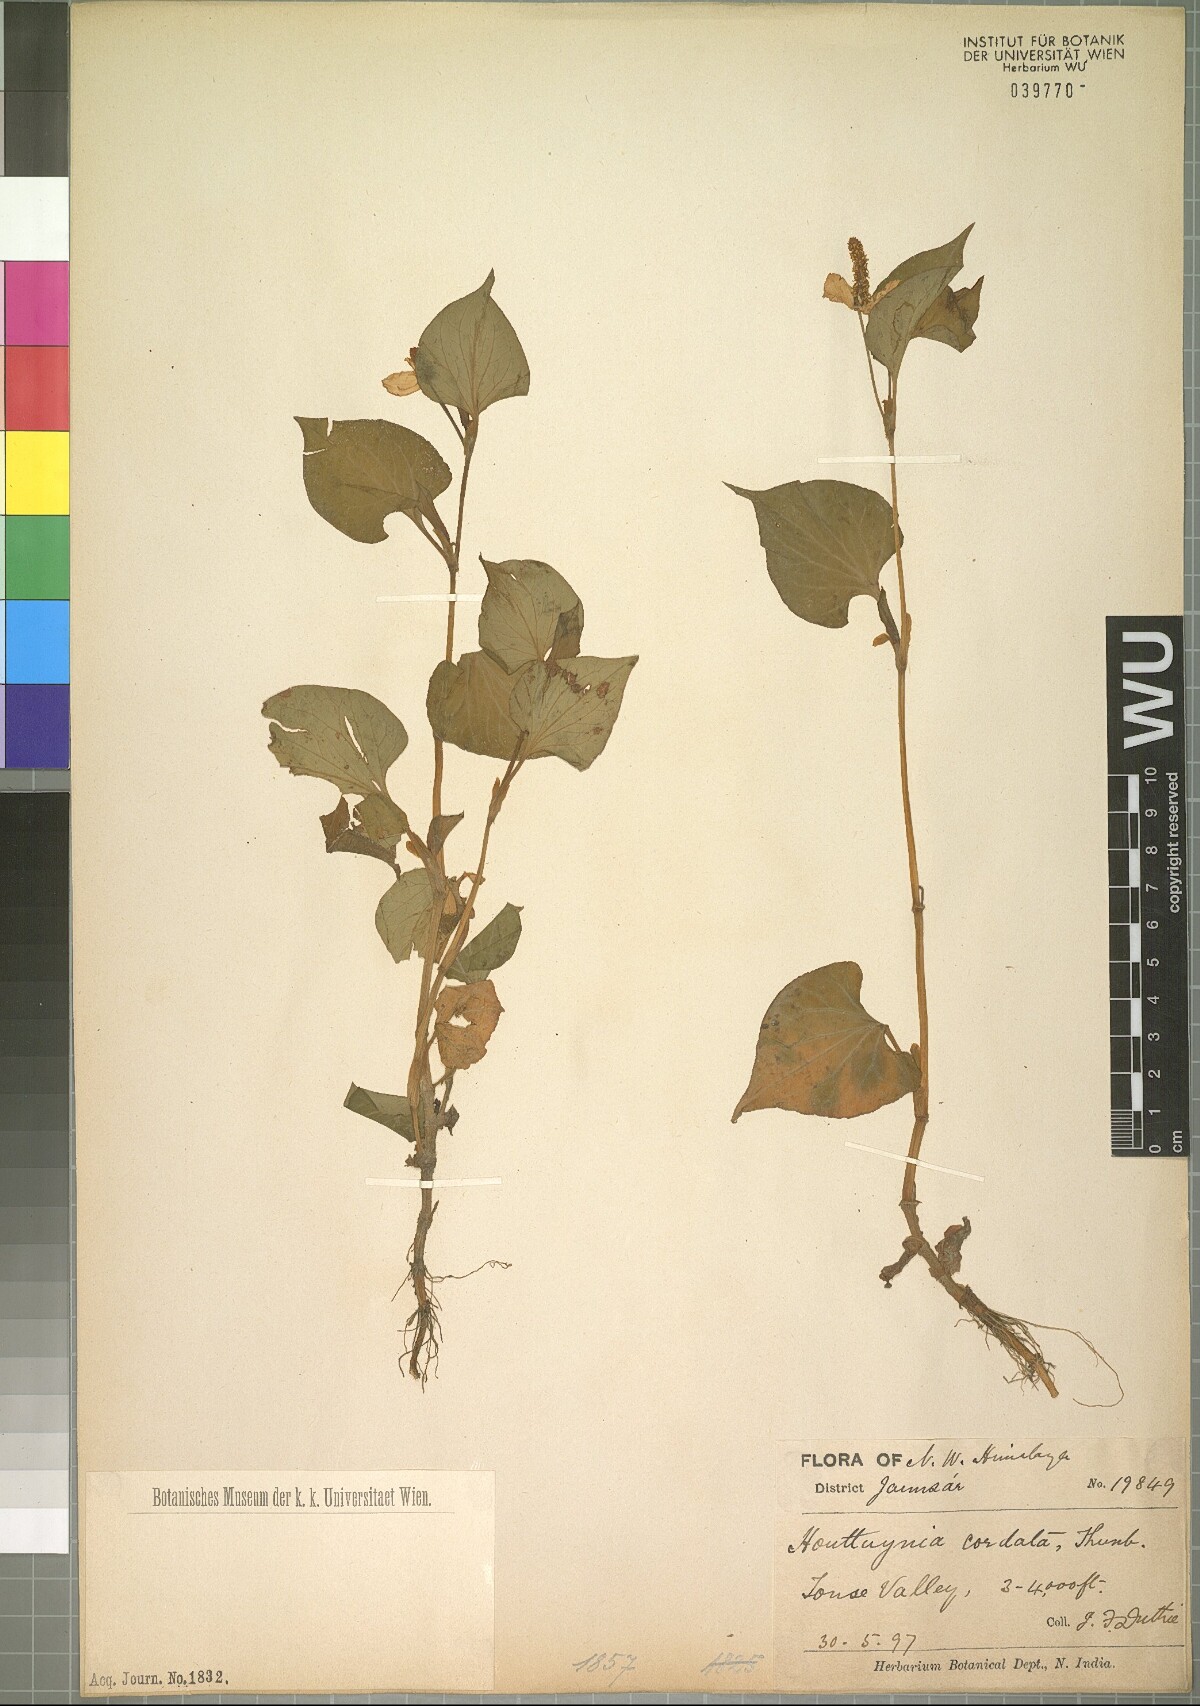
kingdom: Plantae
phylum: Tracheophyta
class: Magnoliopsida
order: Piperales
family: Saururaceae
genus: Houttuynia
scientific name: Houttuynia cordata
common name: Chameleon
